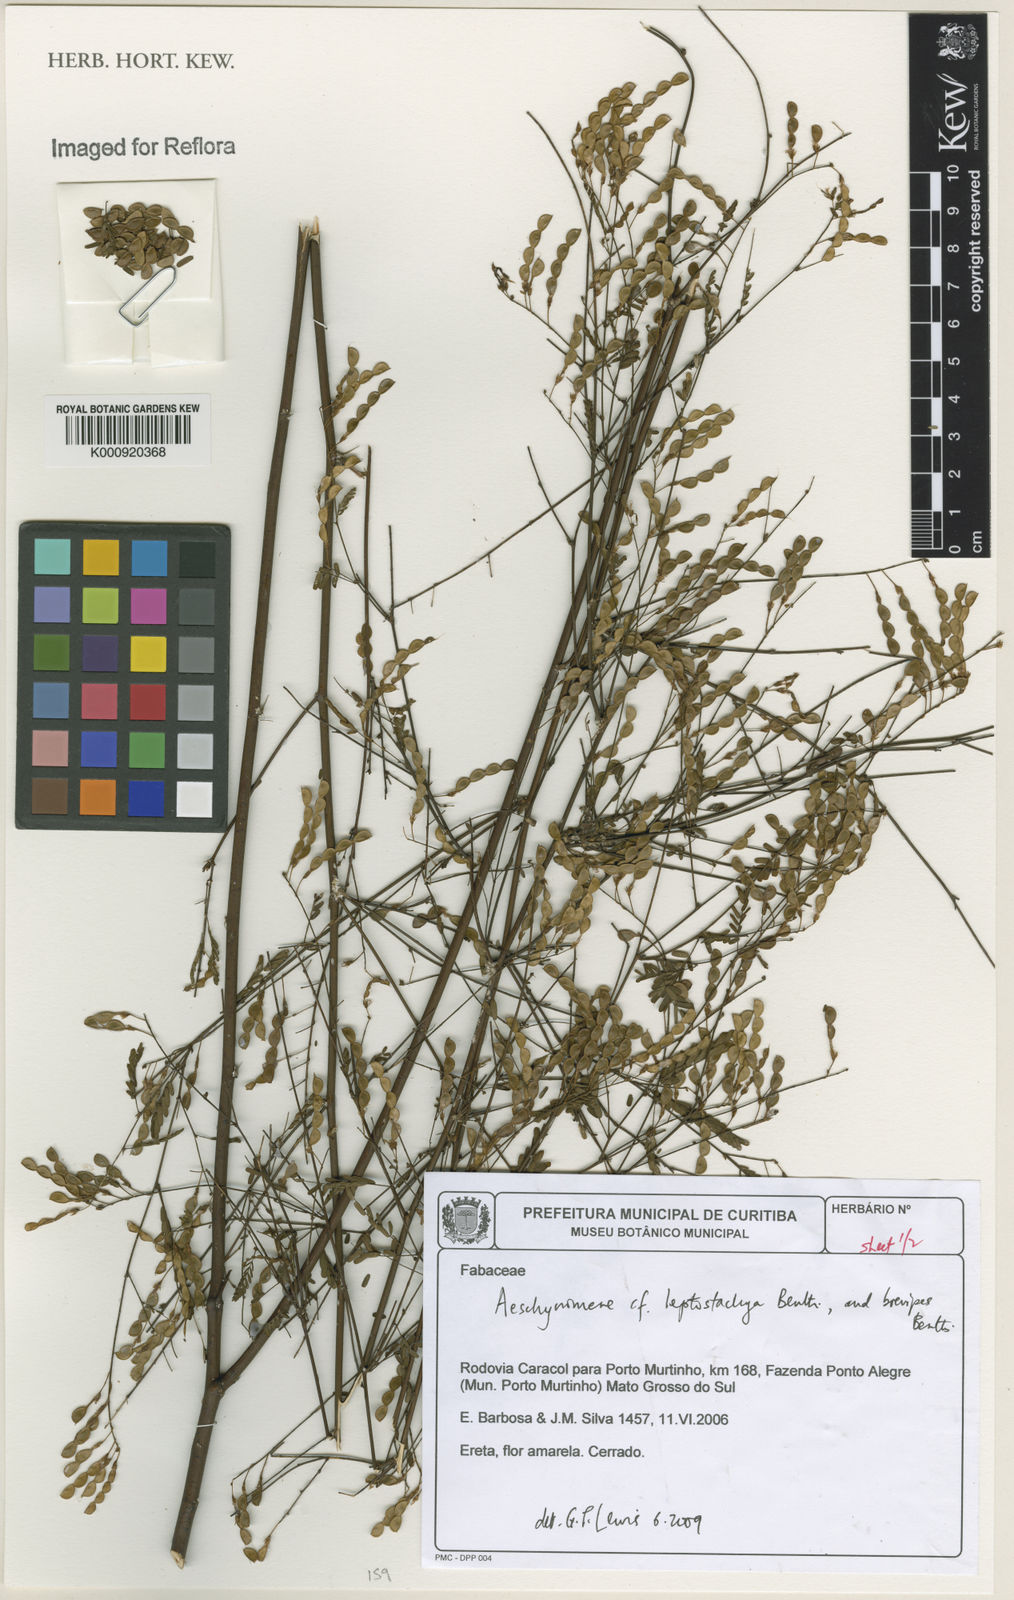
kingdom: Plantae
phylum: Tracheophyta
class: Magnoliopsida
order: Fabales
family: Fabaceae
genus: Ctenodon
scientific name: Ctenodon leptostachyus
